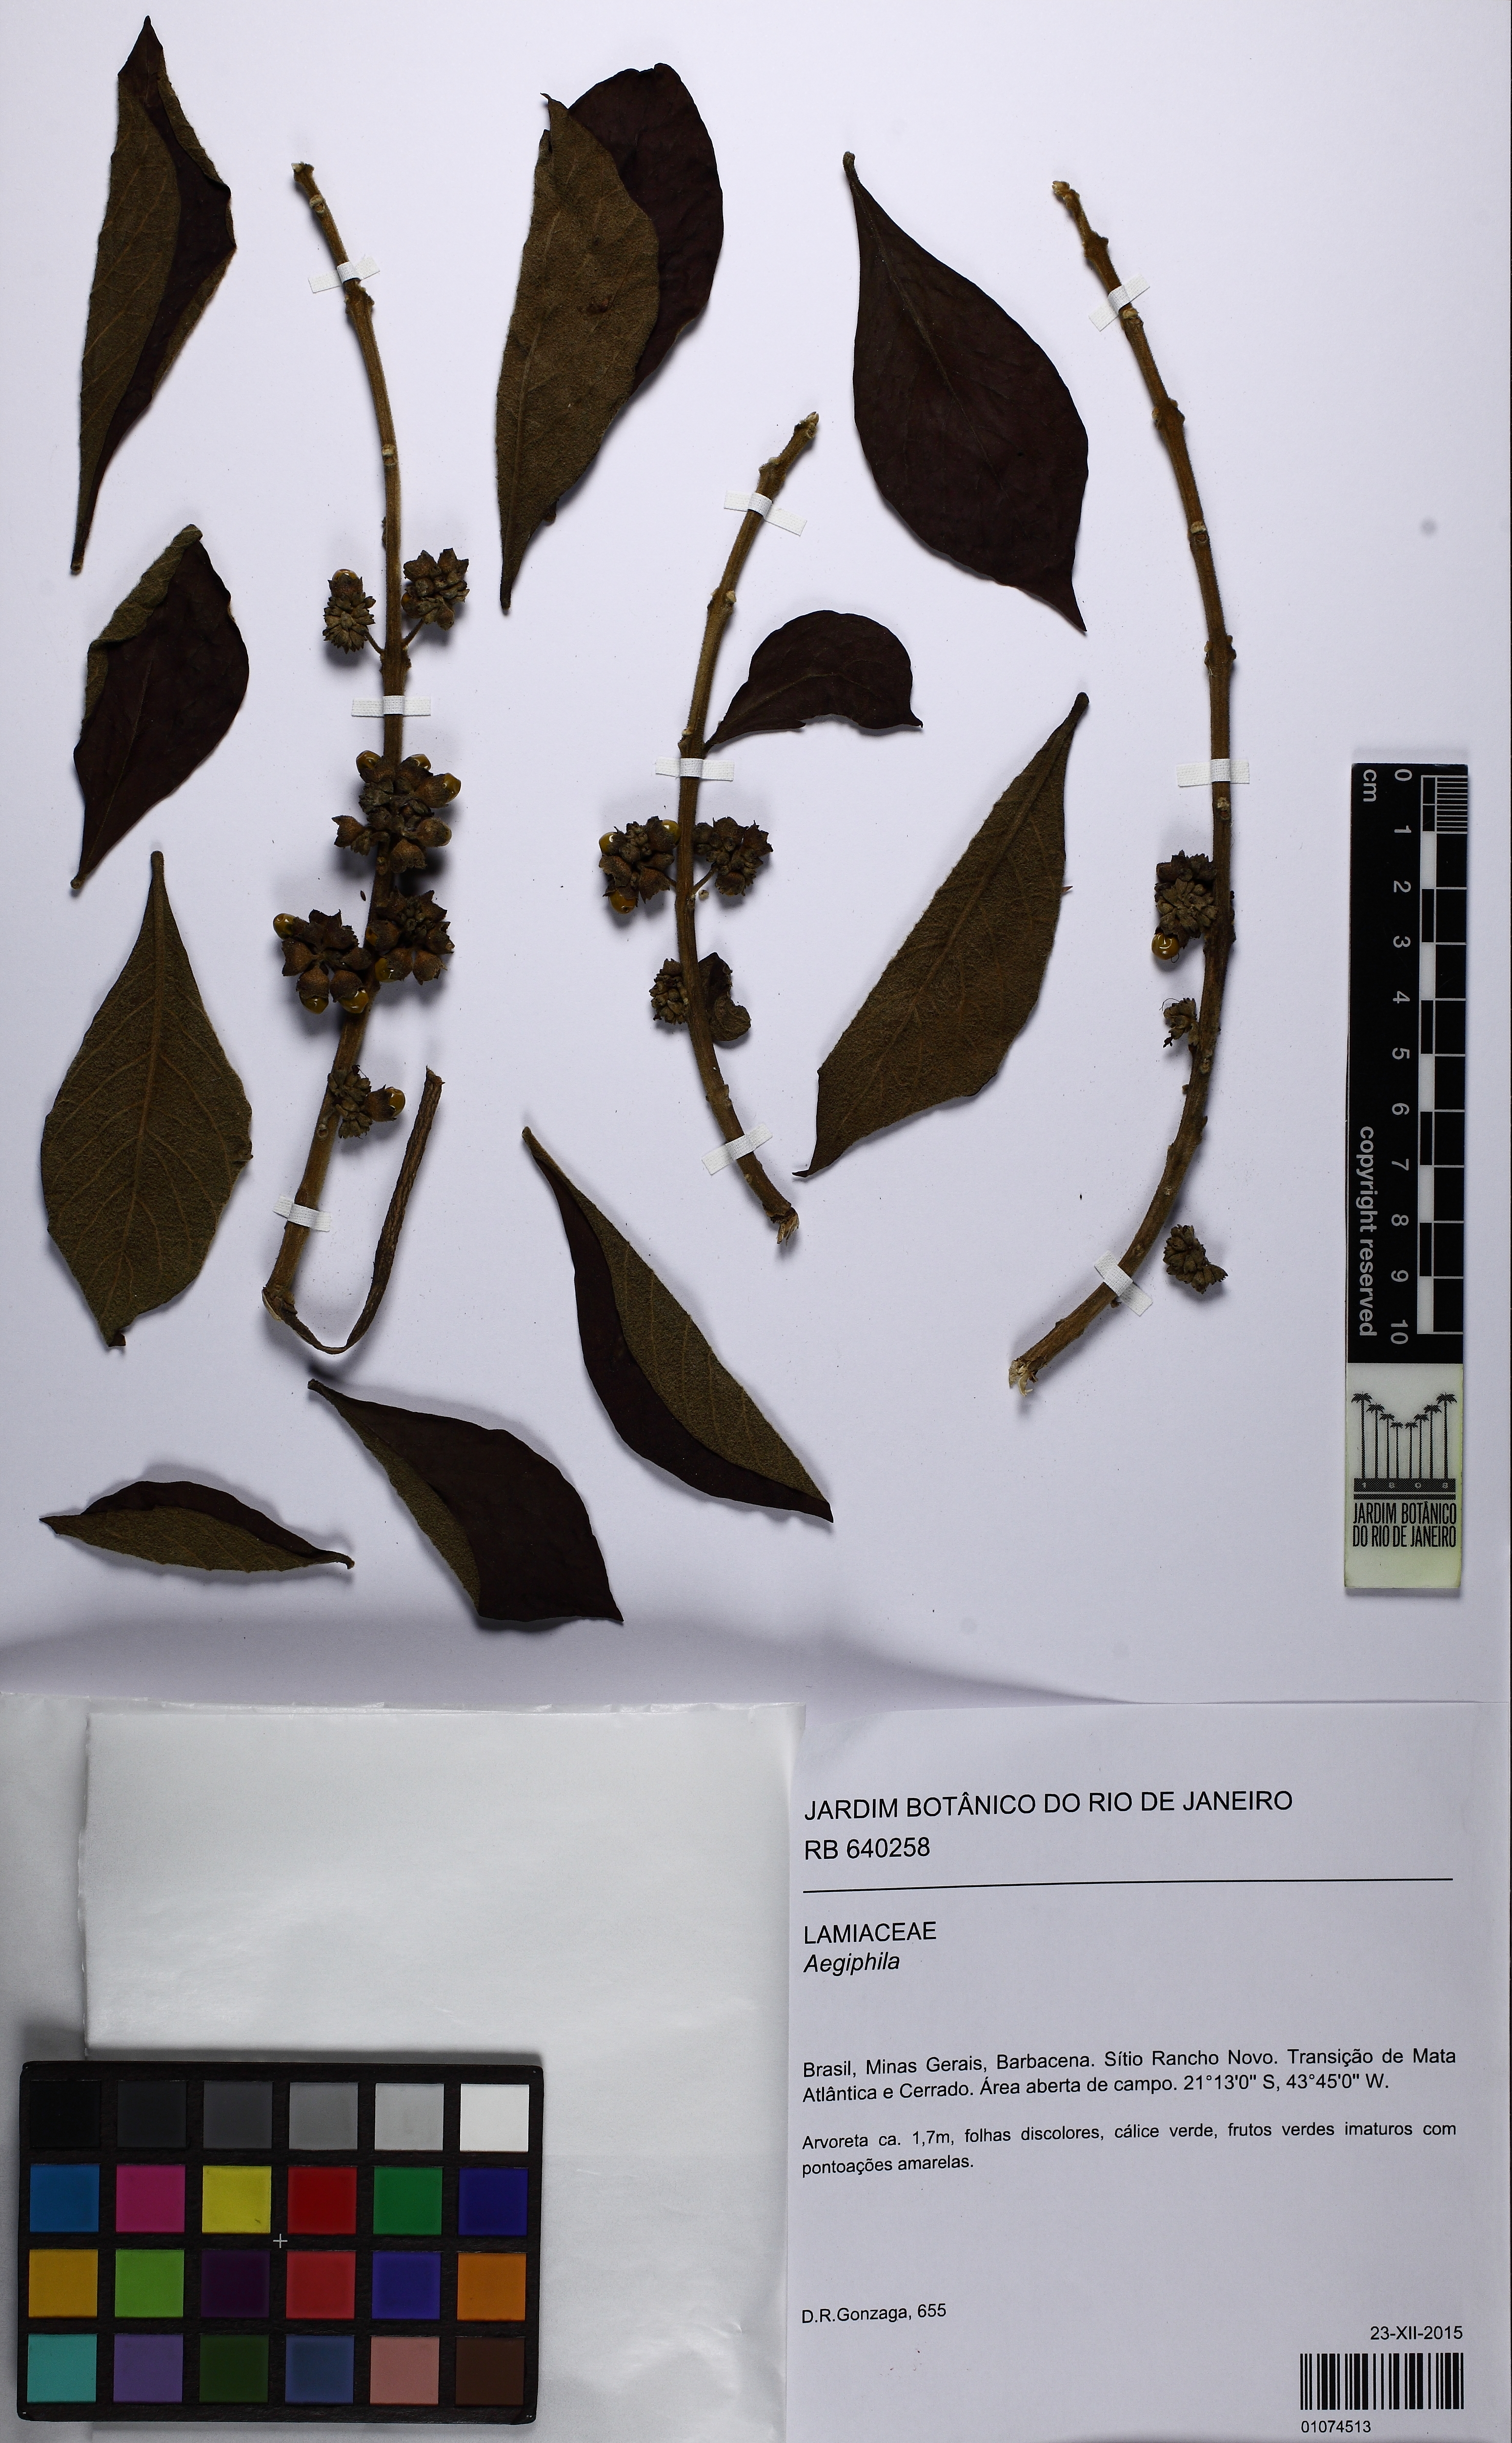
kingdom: Plantae
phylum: Tracheophyta
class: Magnoliopsida
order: Lamiales
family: Lamiaceae
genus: Aegiphila
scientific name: Aegiphila
